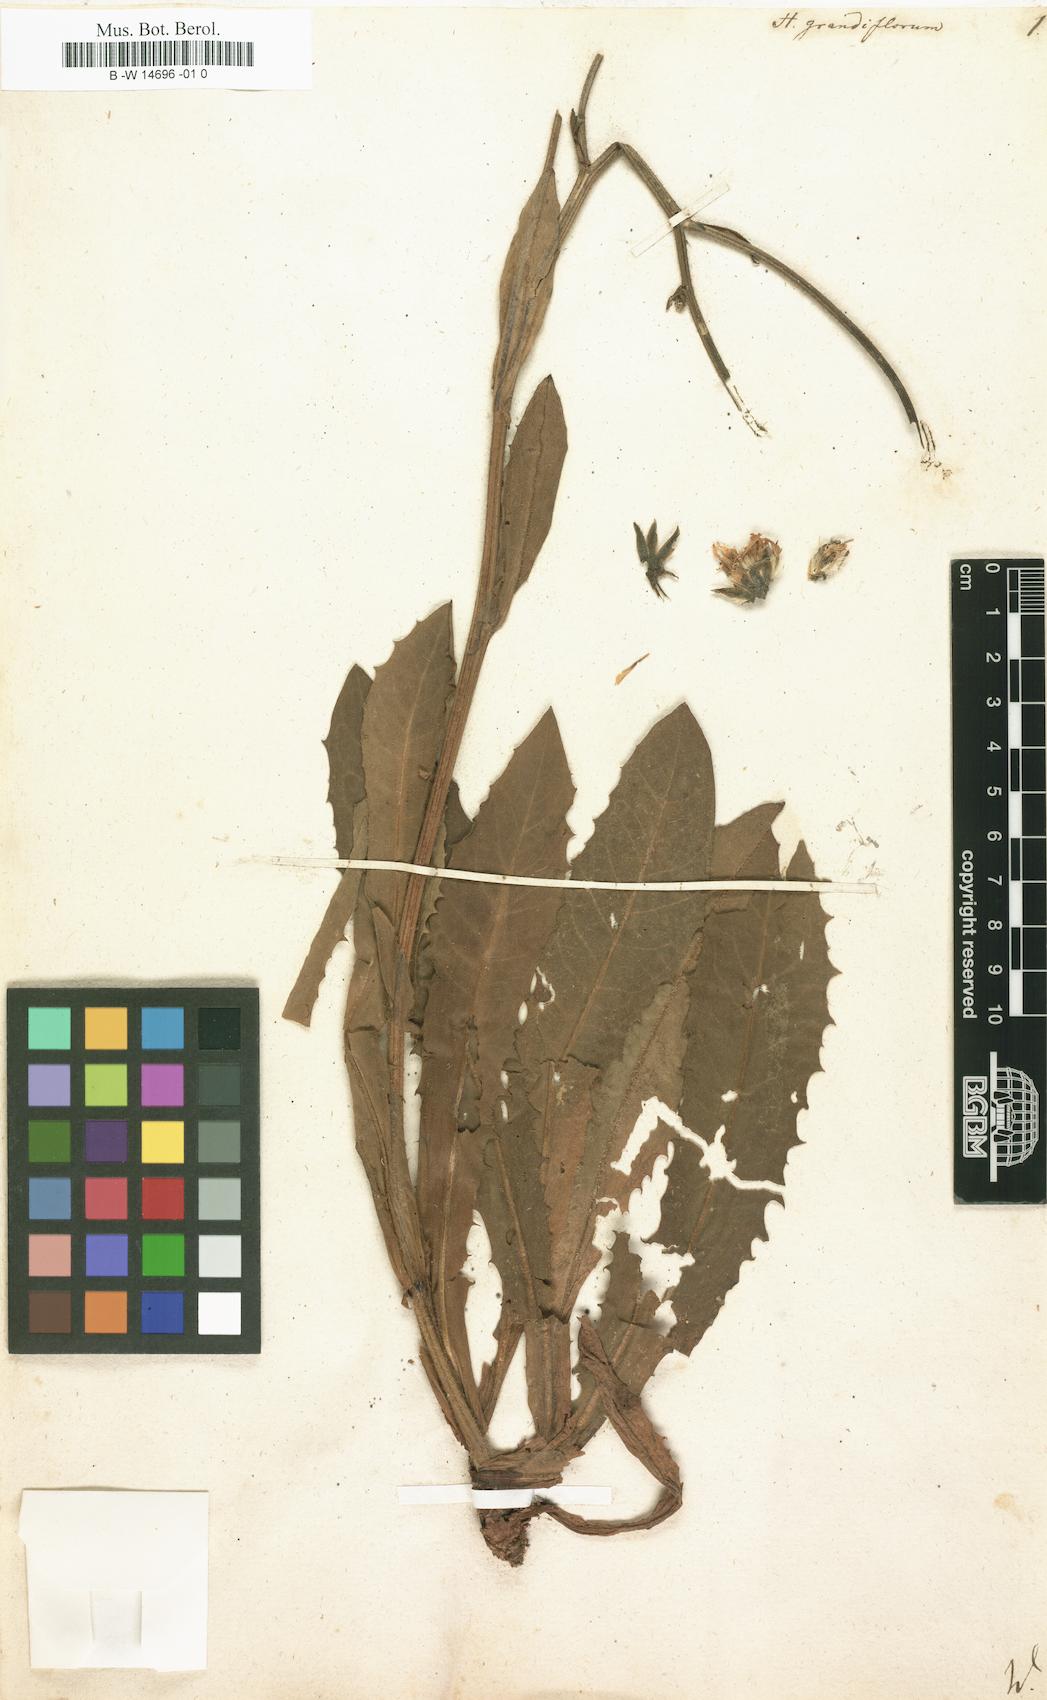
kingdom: Plantae
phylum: Tracheophyta
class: Magnoliopsida
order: Asterales
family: Asteraceae
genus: Hieracium
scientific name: Hieracium grandiflorum
